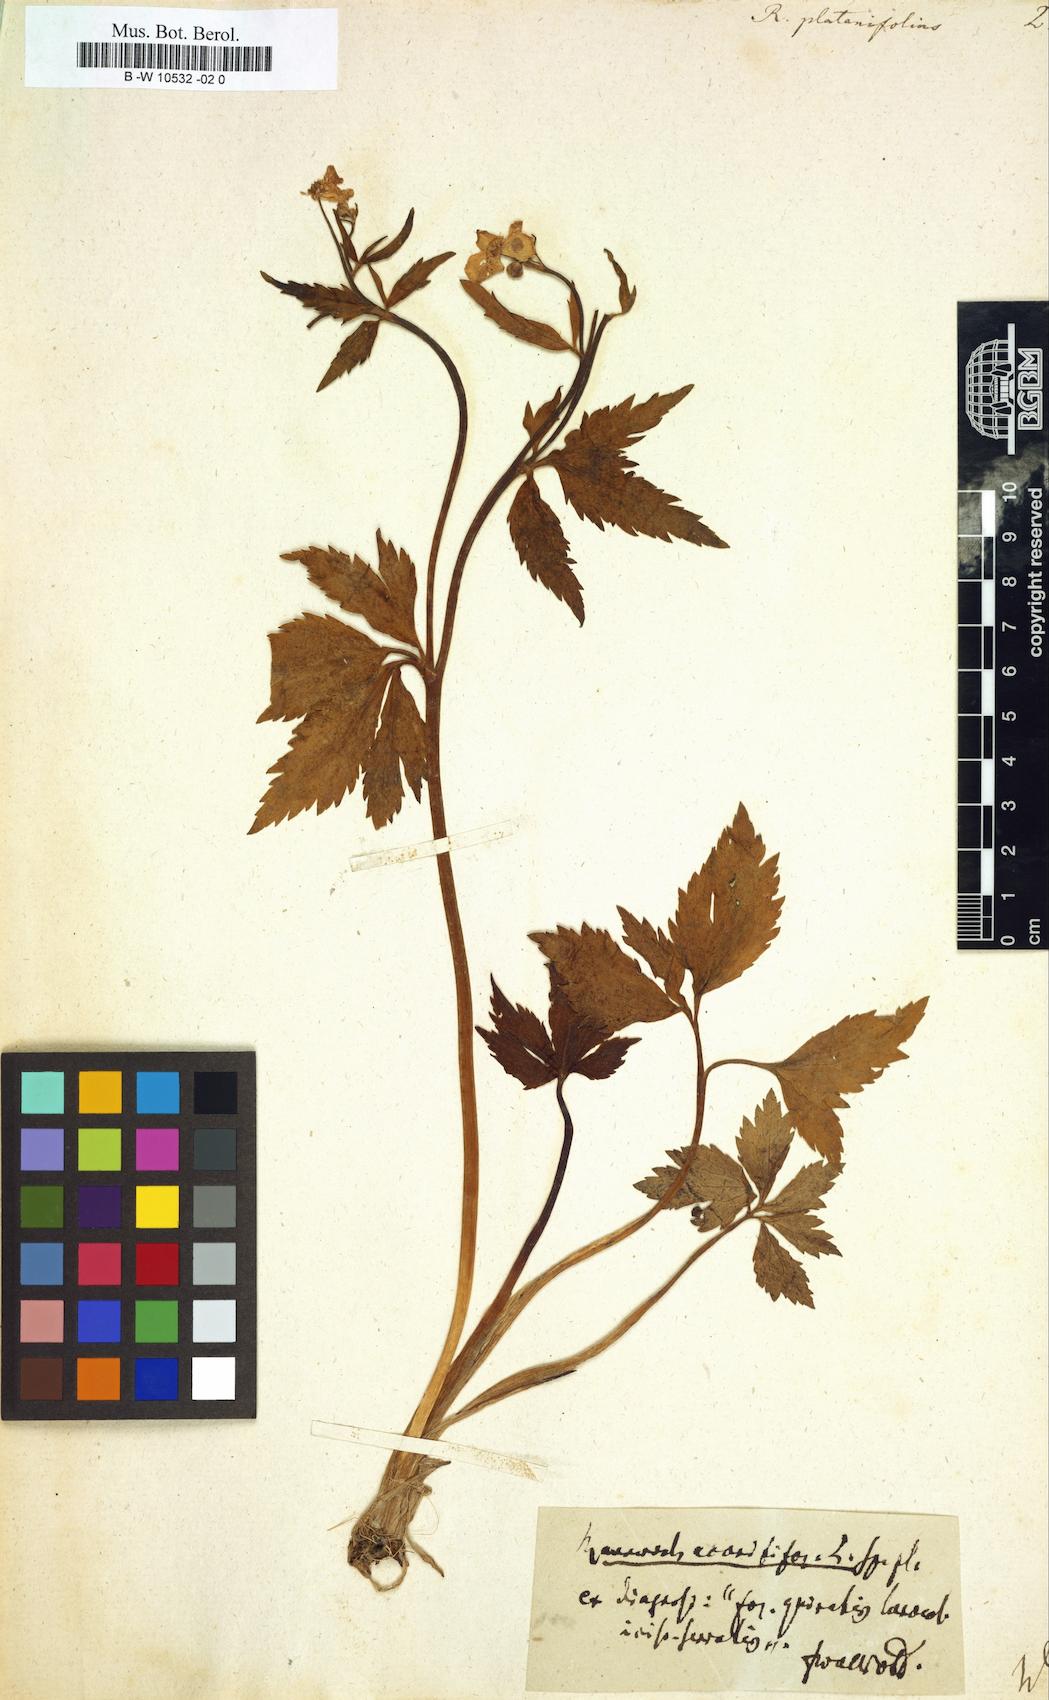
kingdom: Plantae
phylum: Tracheophyta
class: Magnoliopsida
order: Ranunculales
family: Ranunculaceae
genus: Ranunculus
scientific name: Ranunculus platanifolius
